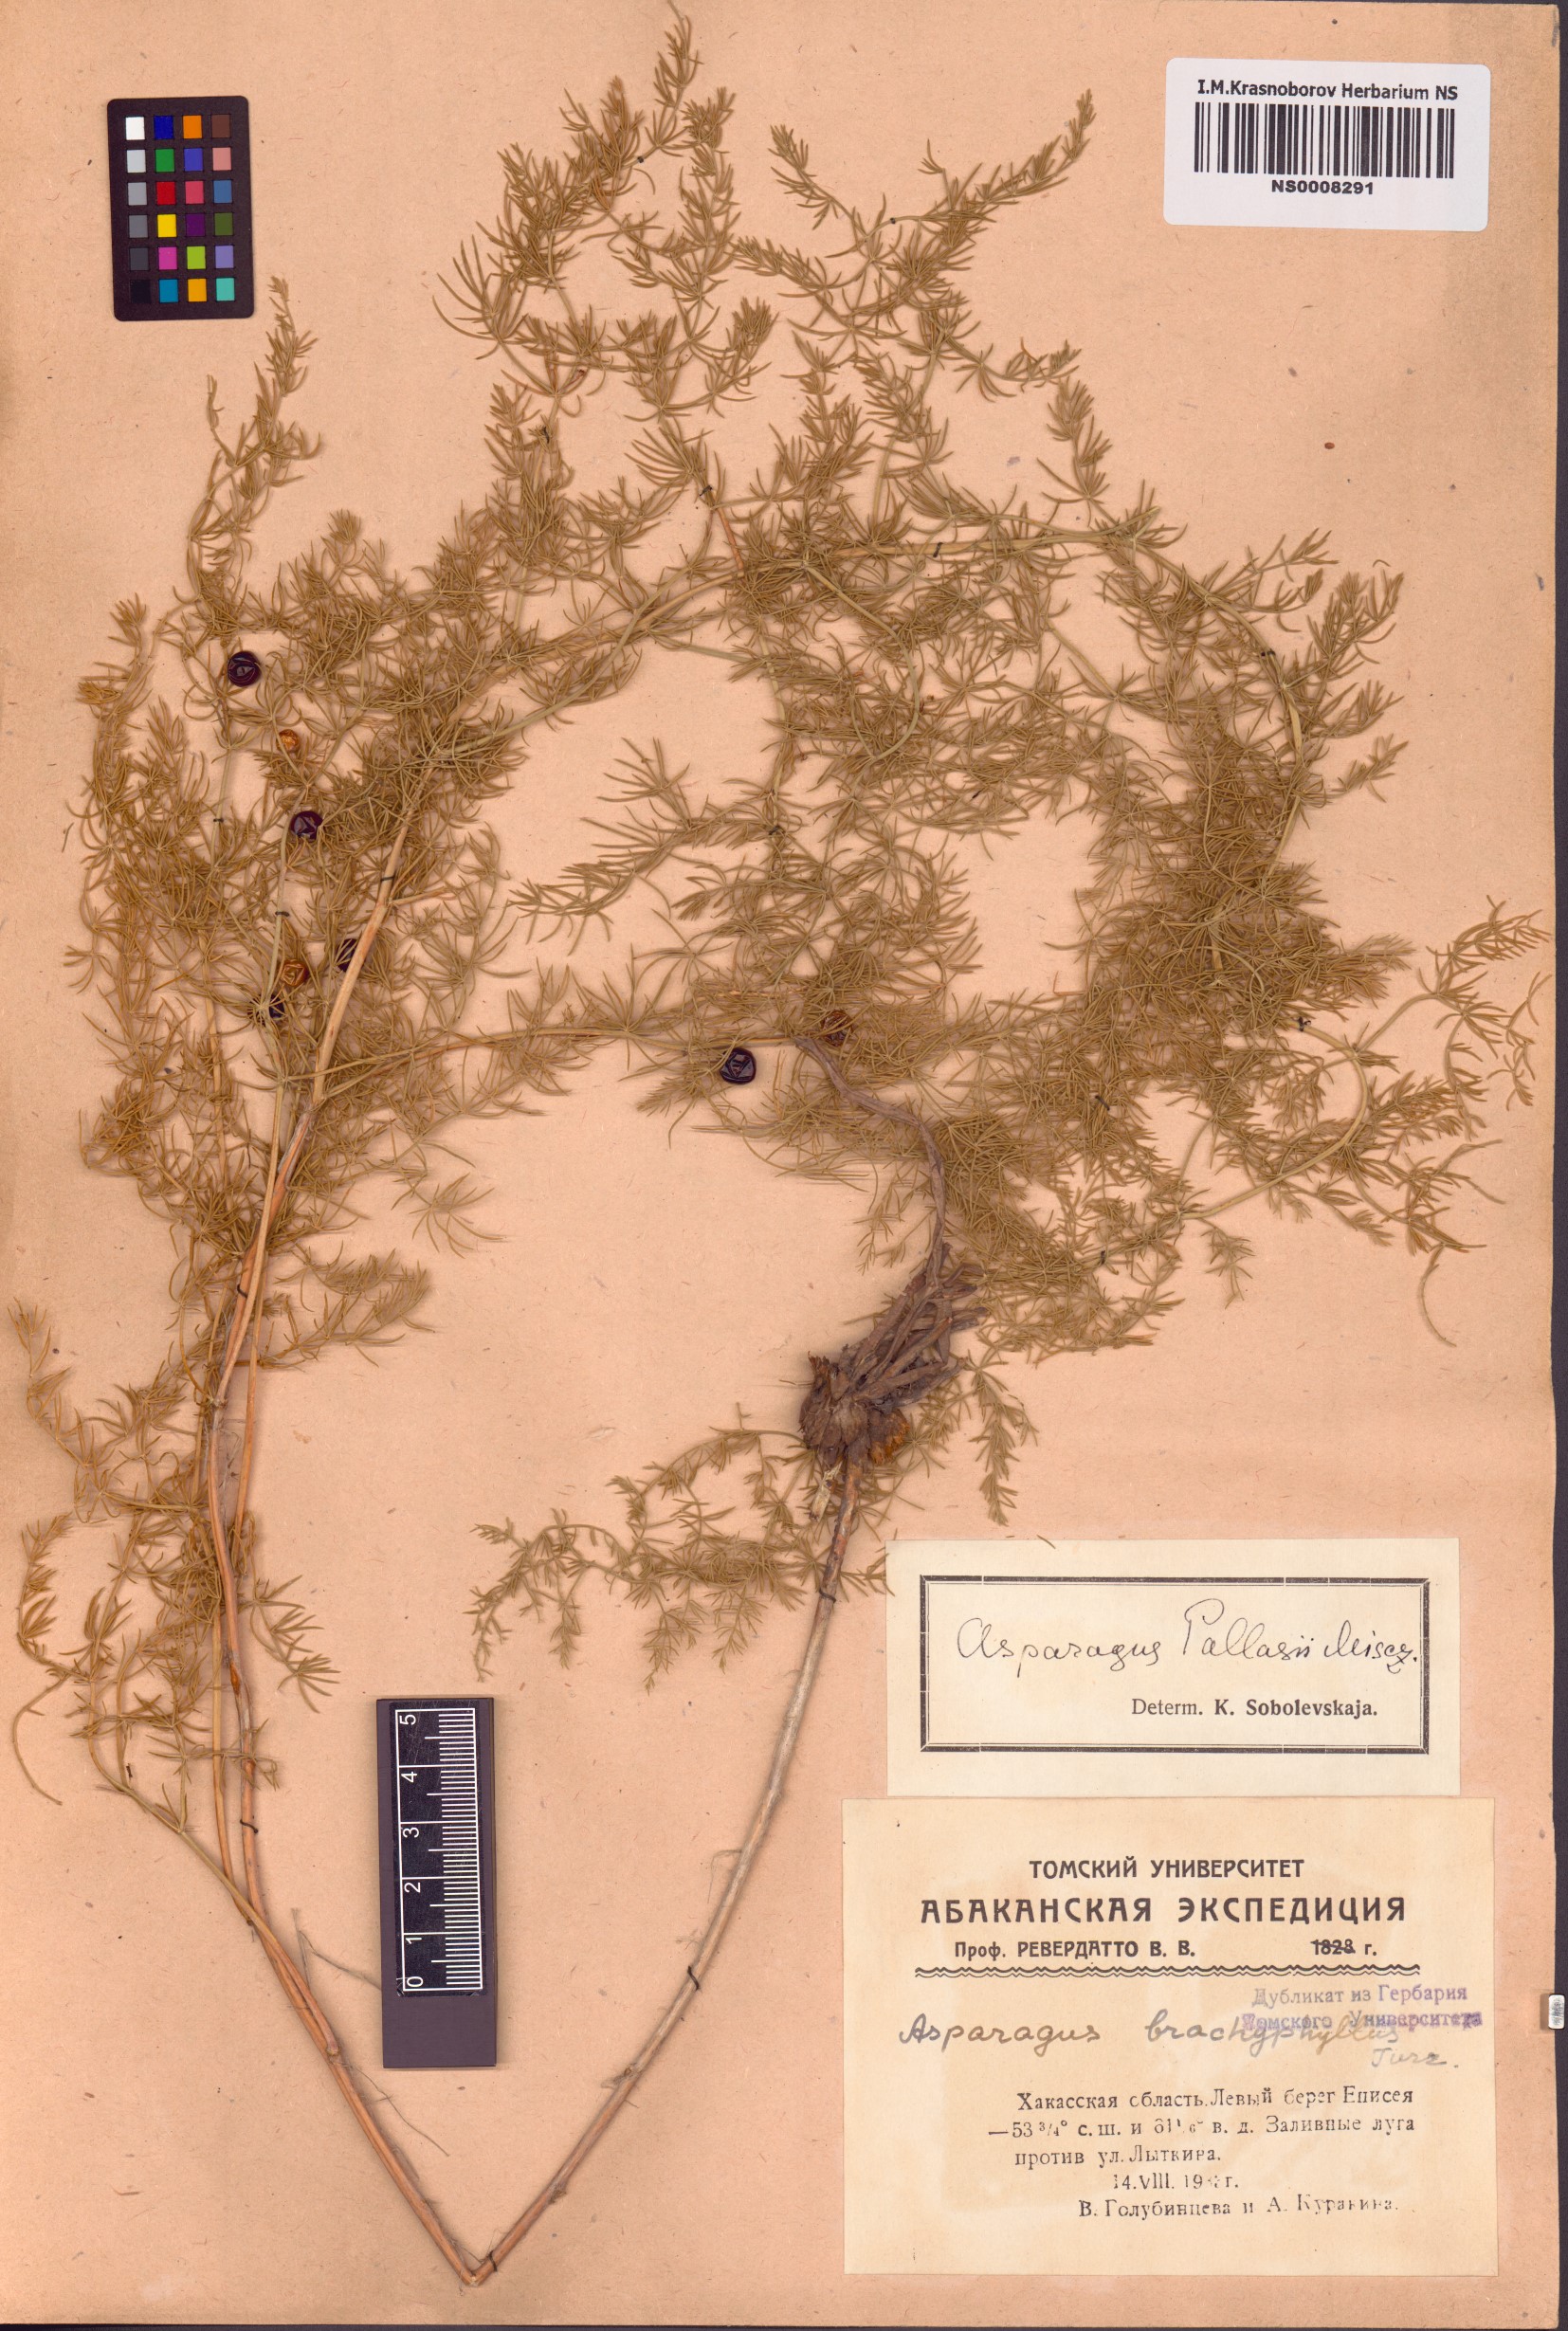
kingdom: Plantae
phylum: Tracheophyta
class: Liliopsida
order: Asparagales
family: Asparagaceae
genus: Asparagus
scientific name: Asparagus pallasii
